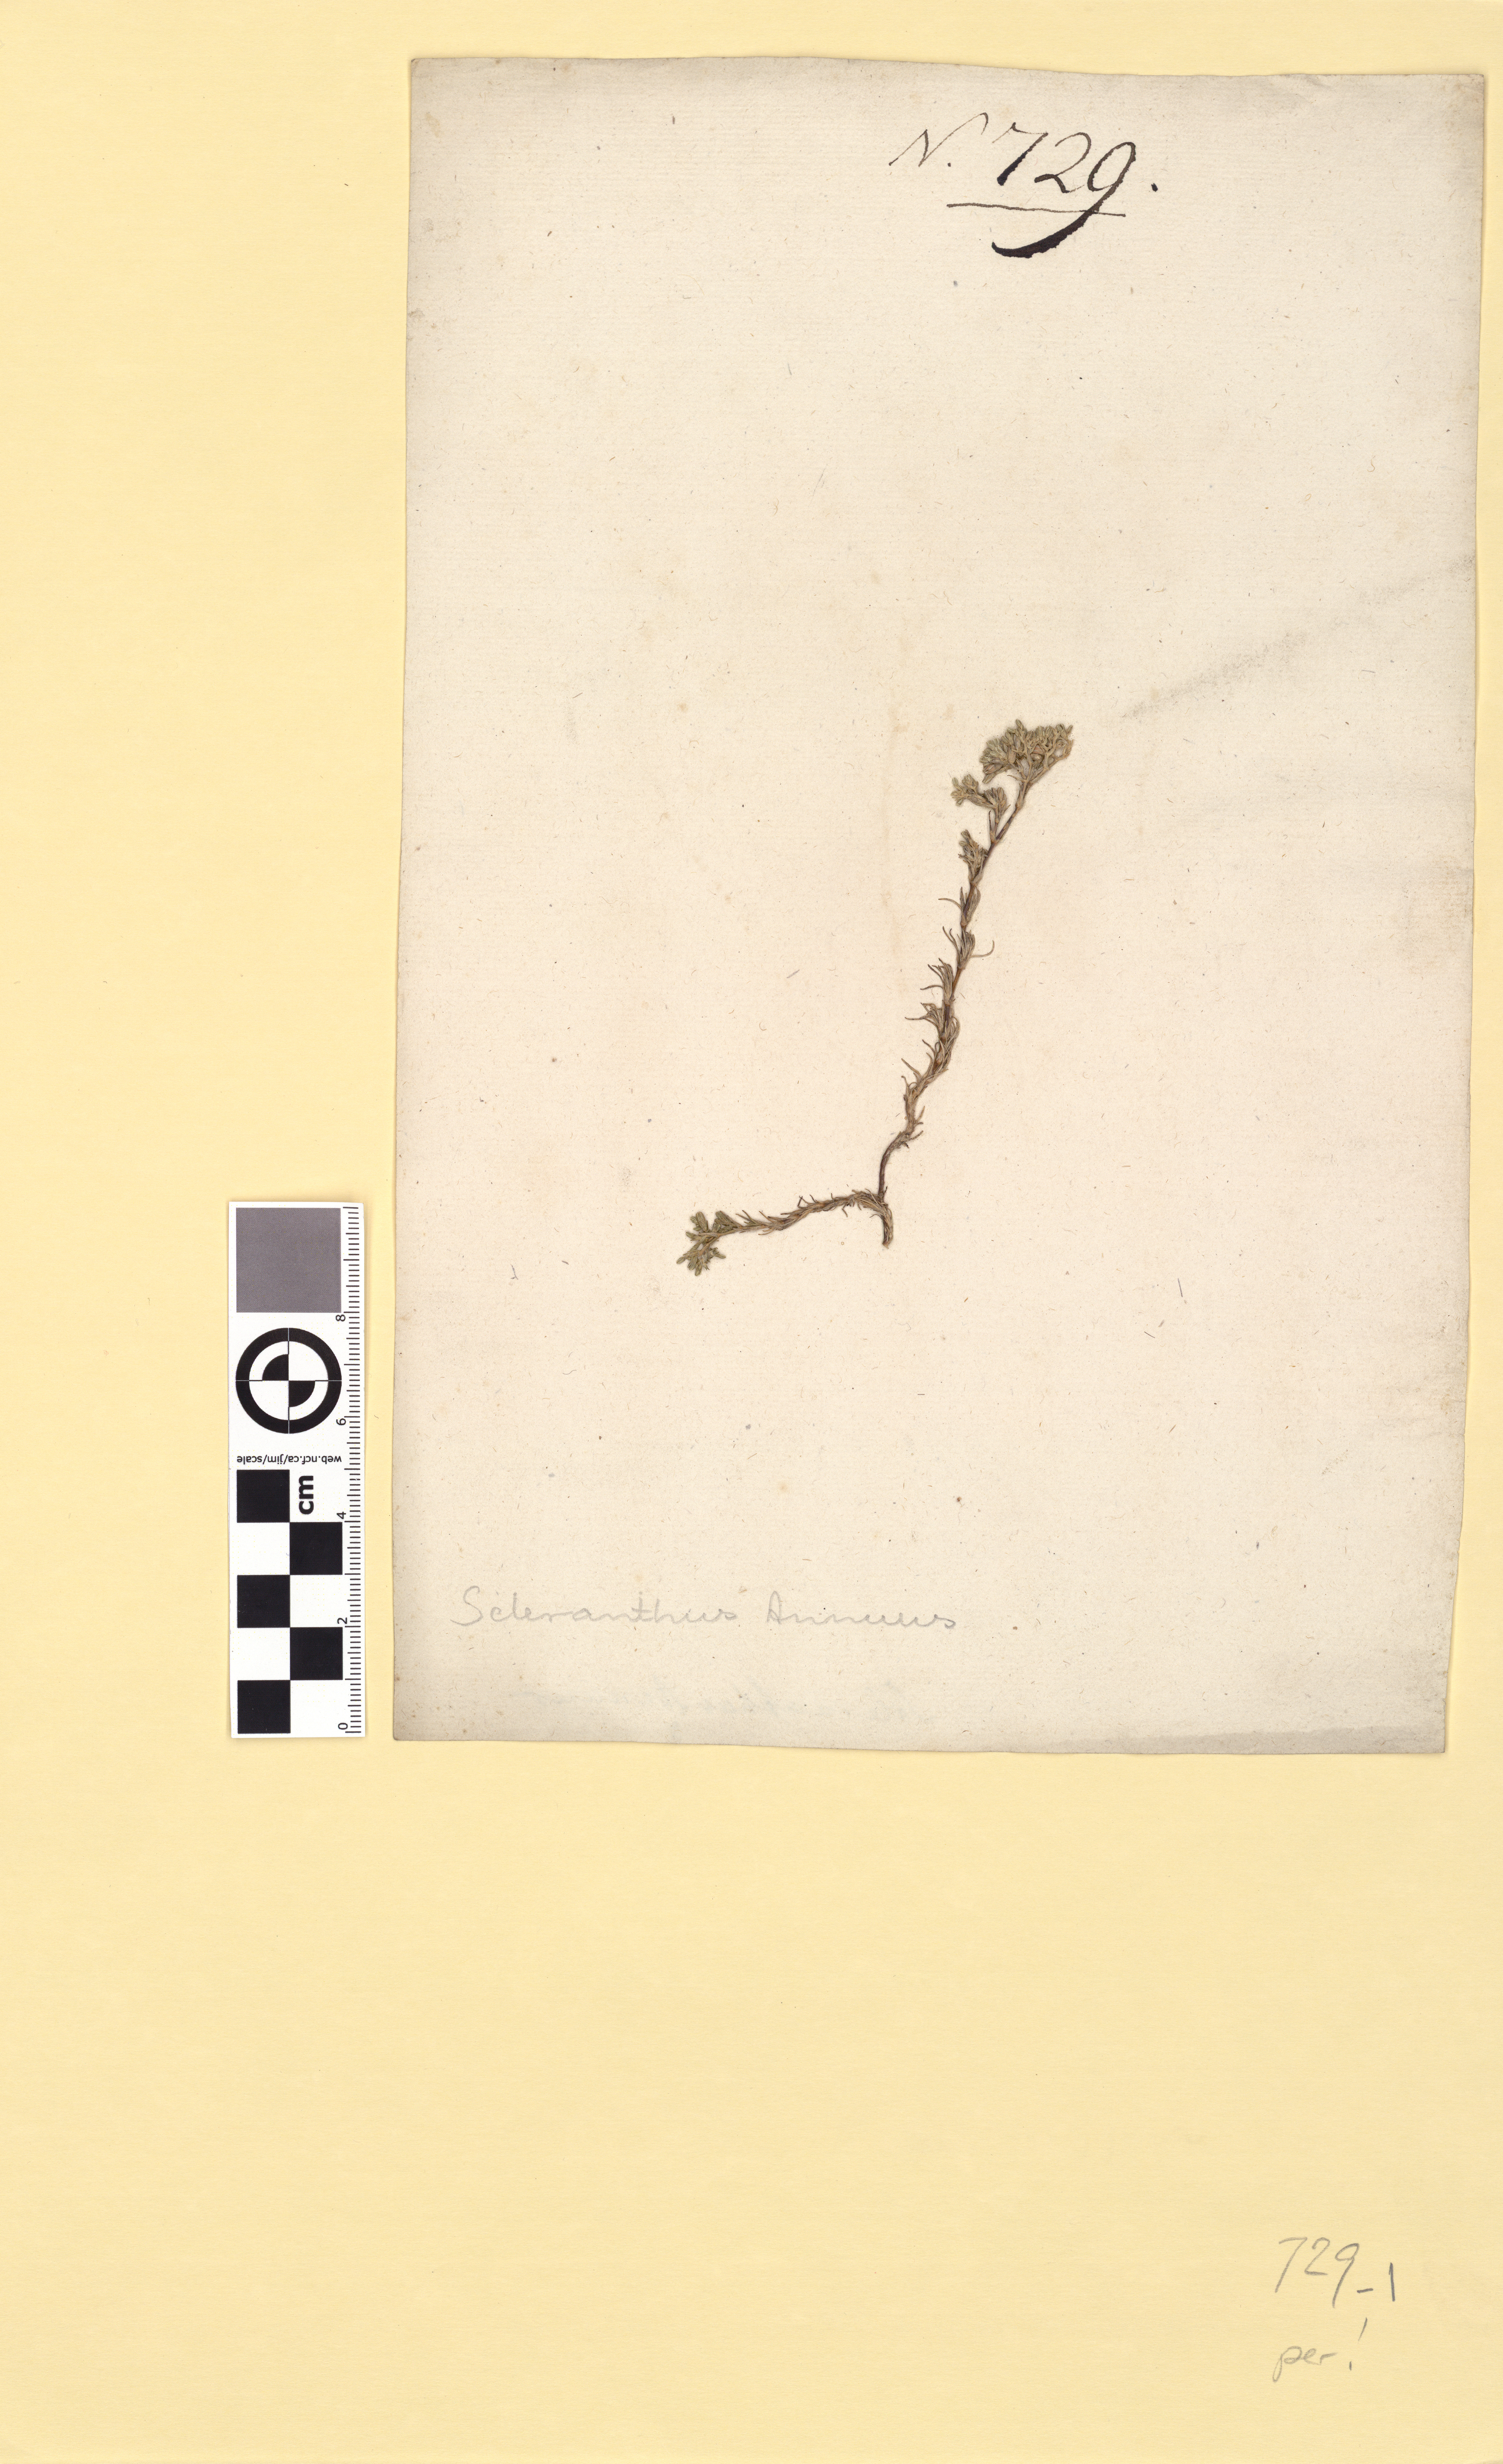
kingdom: Plantae
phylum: Tracheophyta
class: Magnoliopsida
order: Caryophyllales
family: Caryophyllaceae
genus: Scleranthus
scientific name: Scleranthus perennis
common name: Perennial knawel
